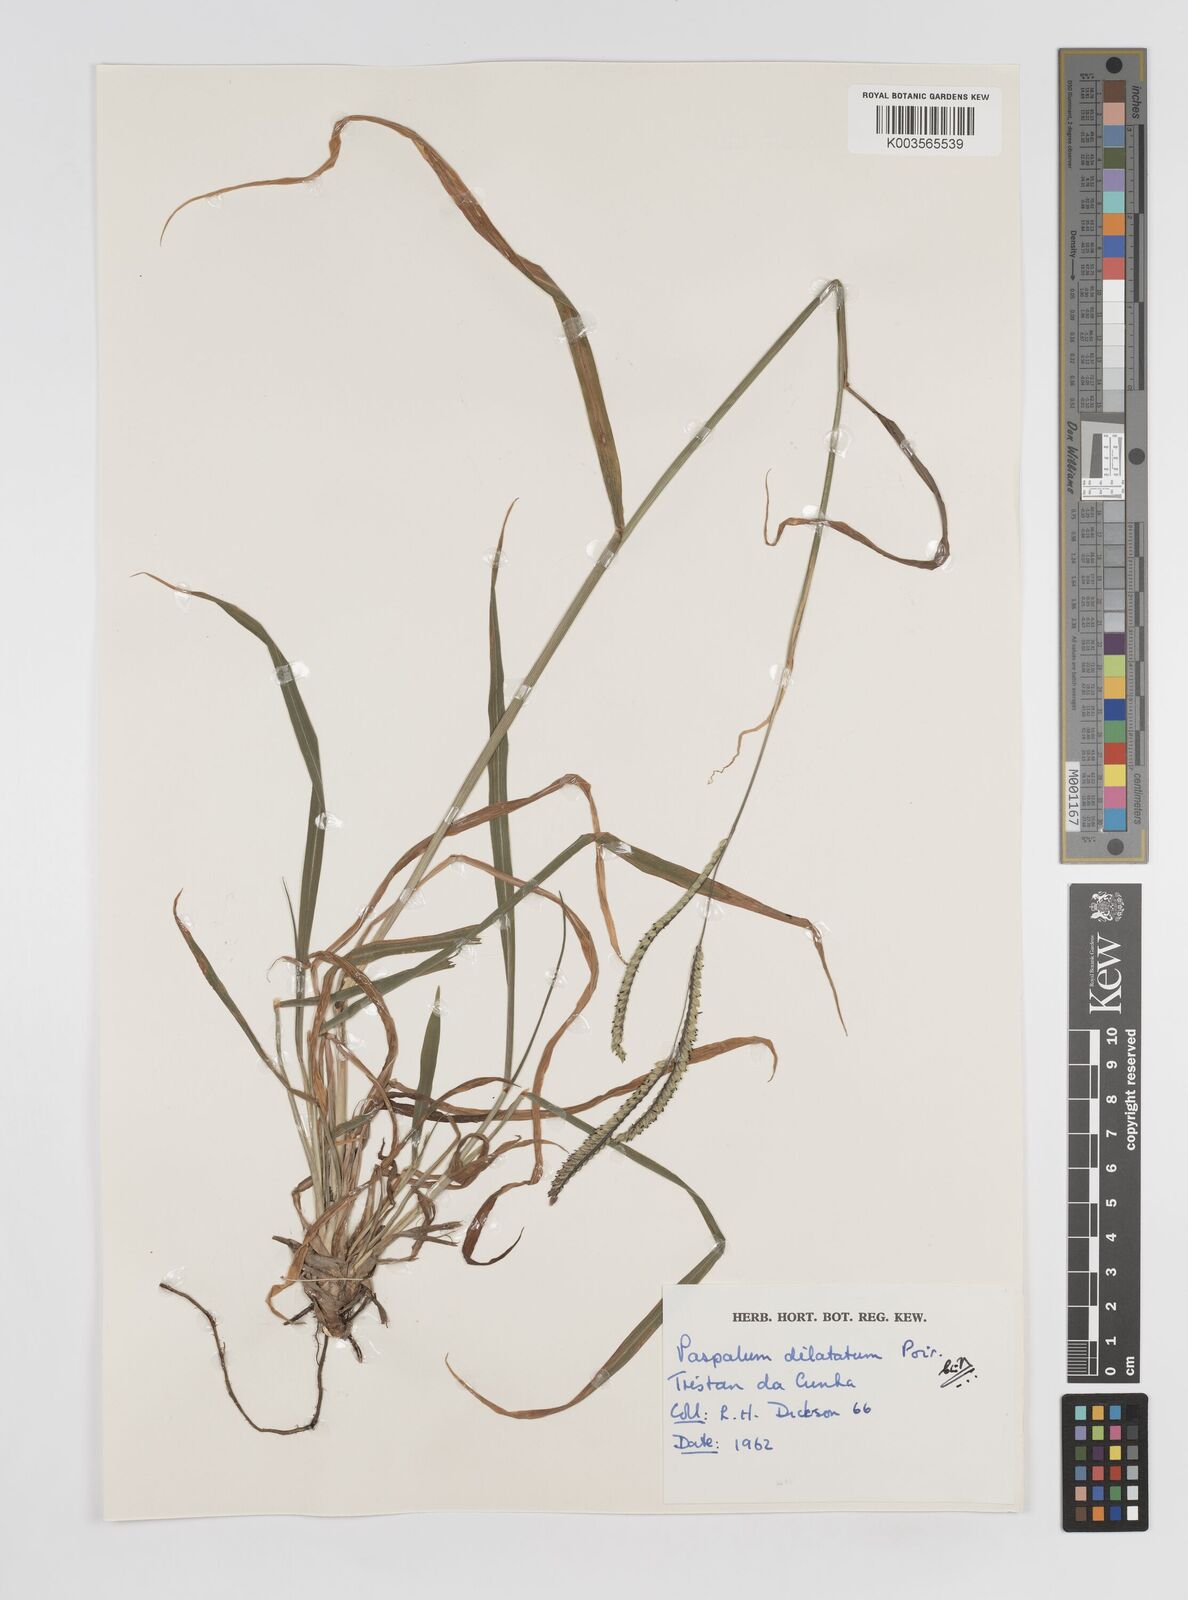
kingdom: Plantae
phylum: Tracheophyta
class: Liliopsida
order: Poales
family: Poaceae
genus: Paspalum
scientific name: Paspalum dilatatum
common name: Dallisgrass
